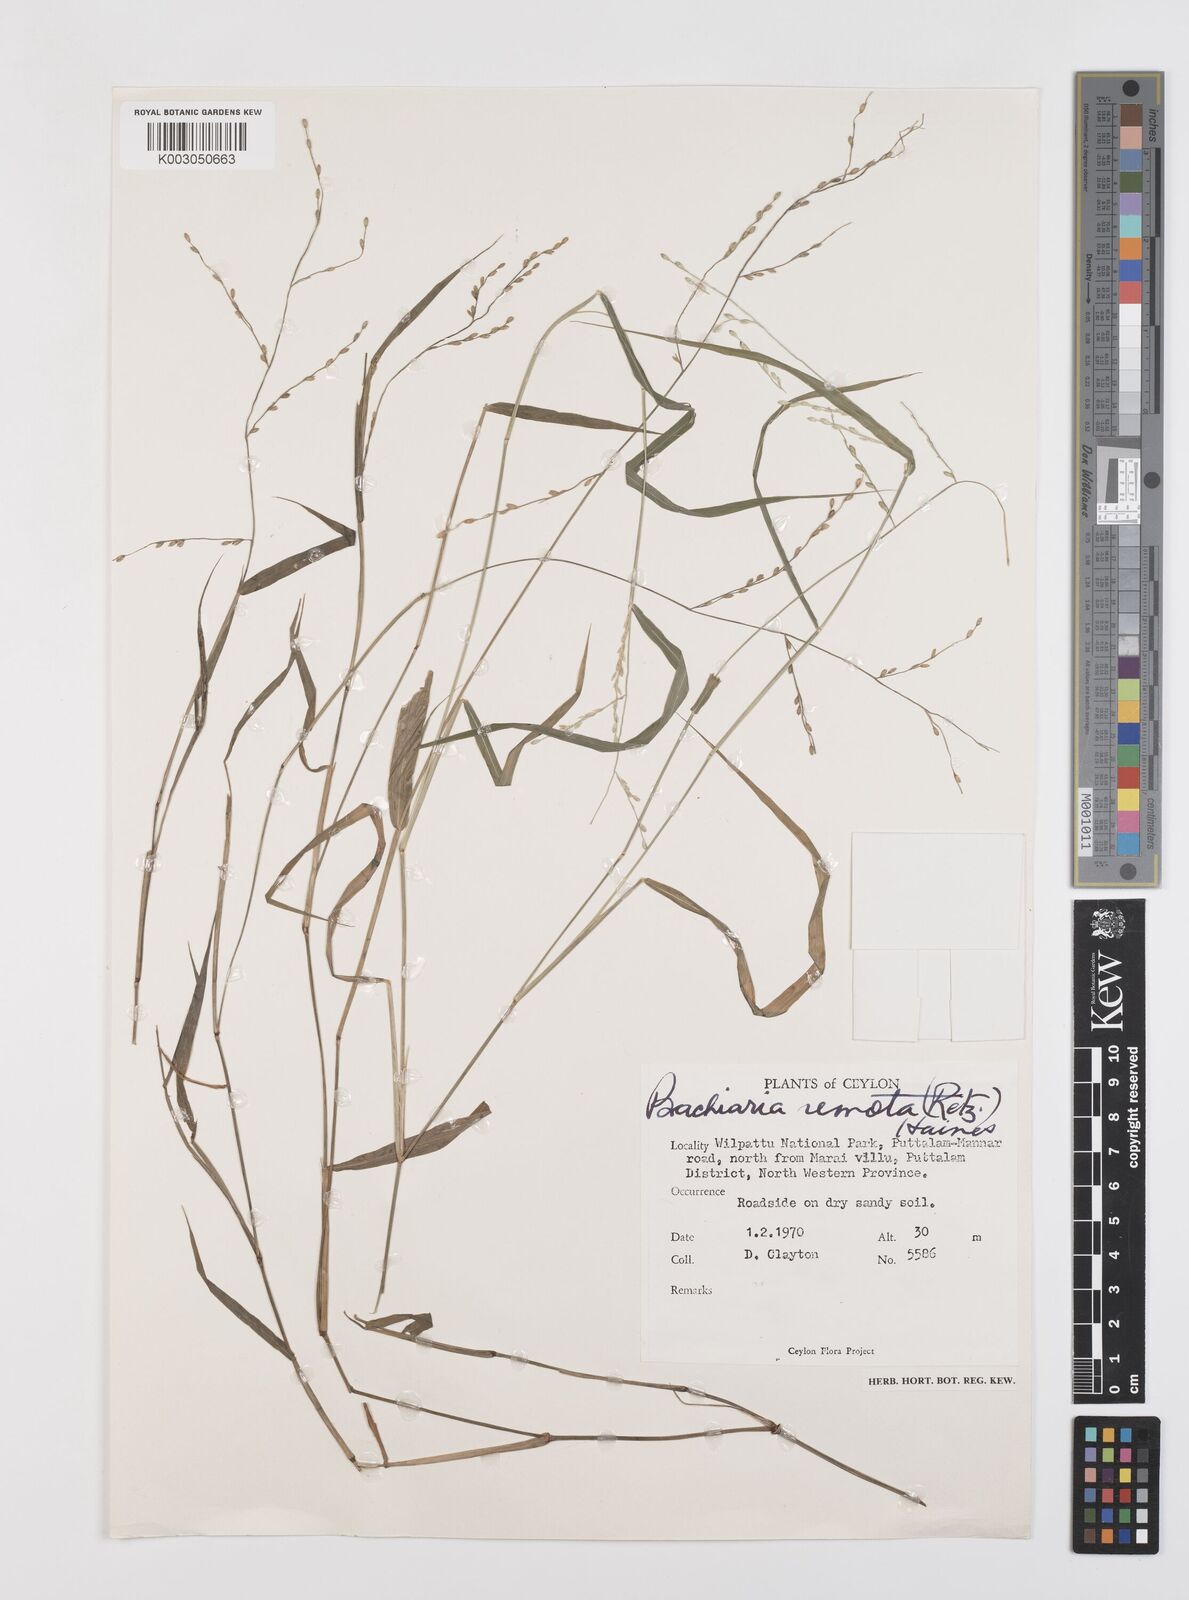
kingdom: Plantae
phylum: Tracheophyta
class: Liliopsida
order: Poales
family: Poaceae
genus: Urochloa
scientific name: Urochloa Brachiaria remota
